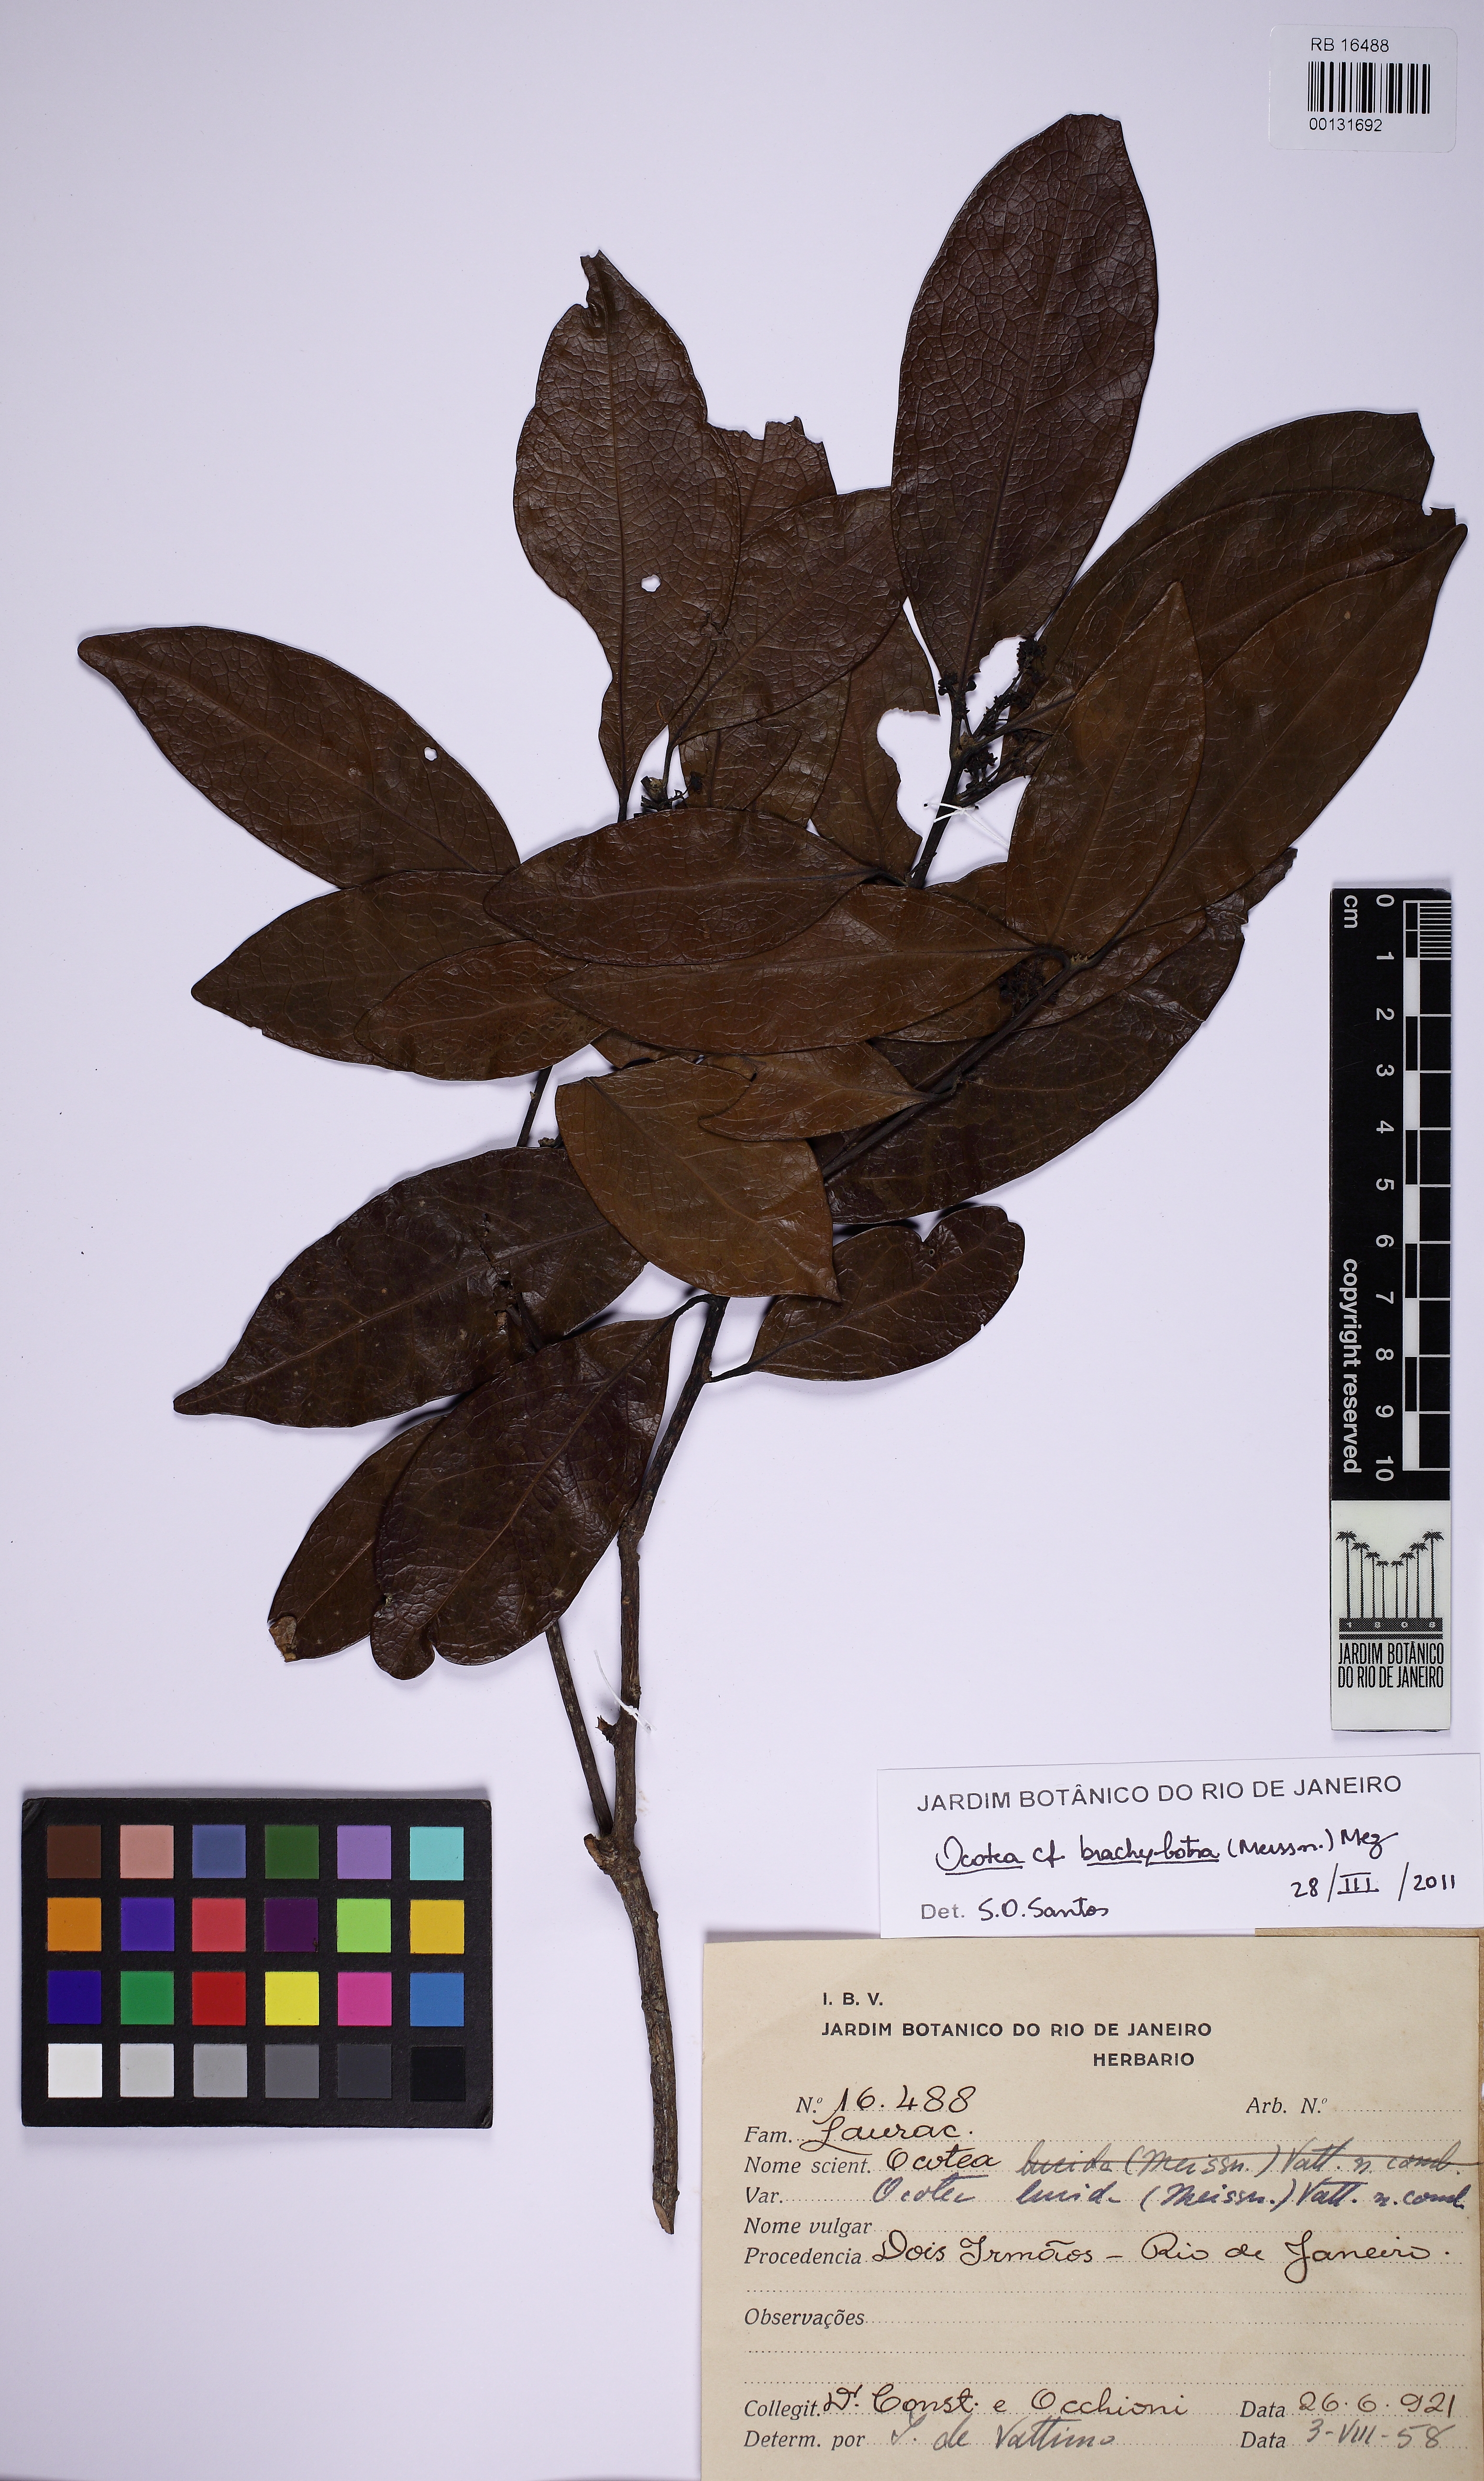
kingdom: Plantae
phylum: Tracheophyta
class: Magnoliopsida
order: Laurales
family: Lauraceae
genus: Ocotea
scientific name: Ocotea brachybotra
